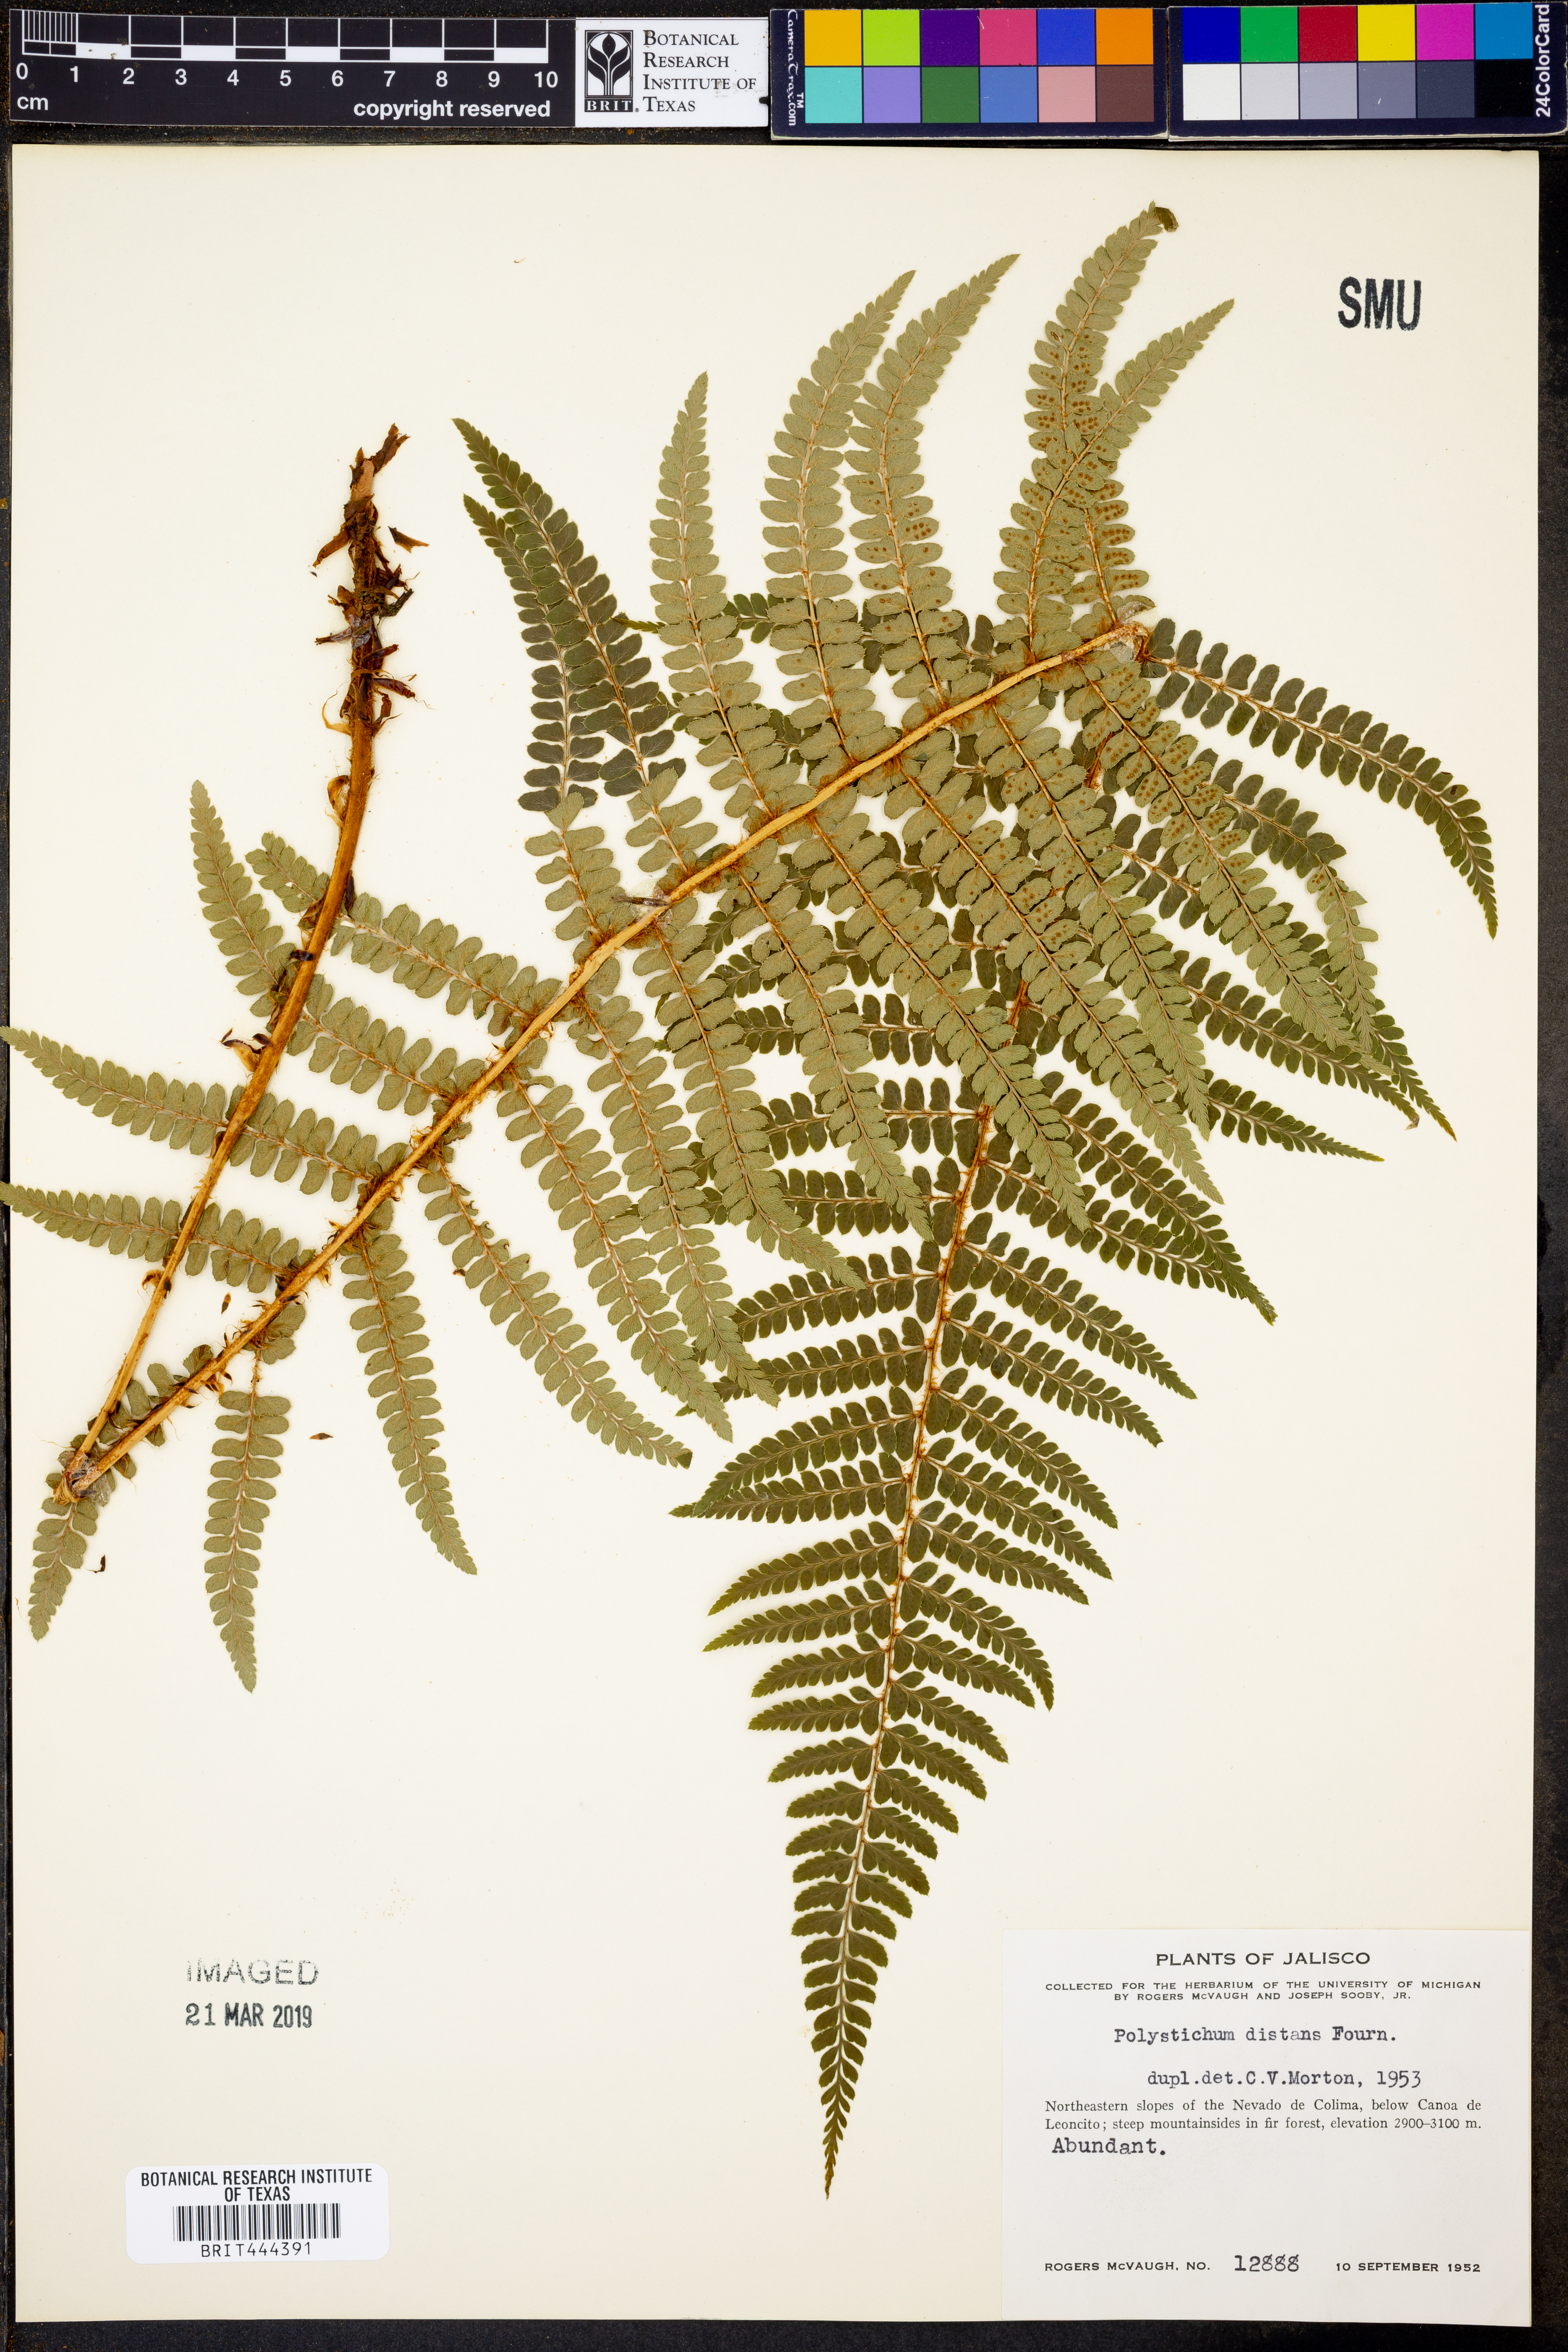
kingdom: Plantae
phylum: Tracheophyta
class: Polypodiopsida
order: Polypodiales
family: Dryopteridaceae
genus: Dryopteris
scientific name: Dryopteris cambrensis
